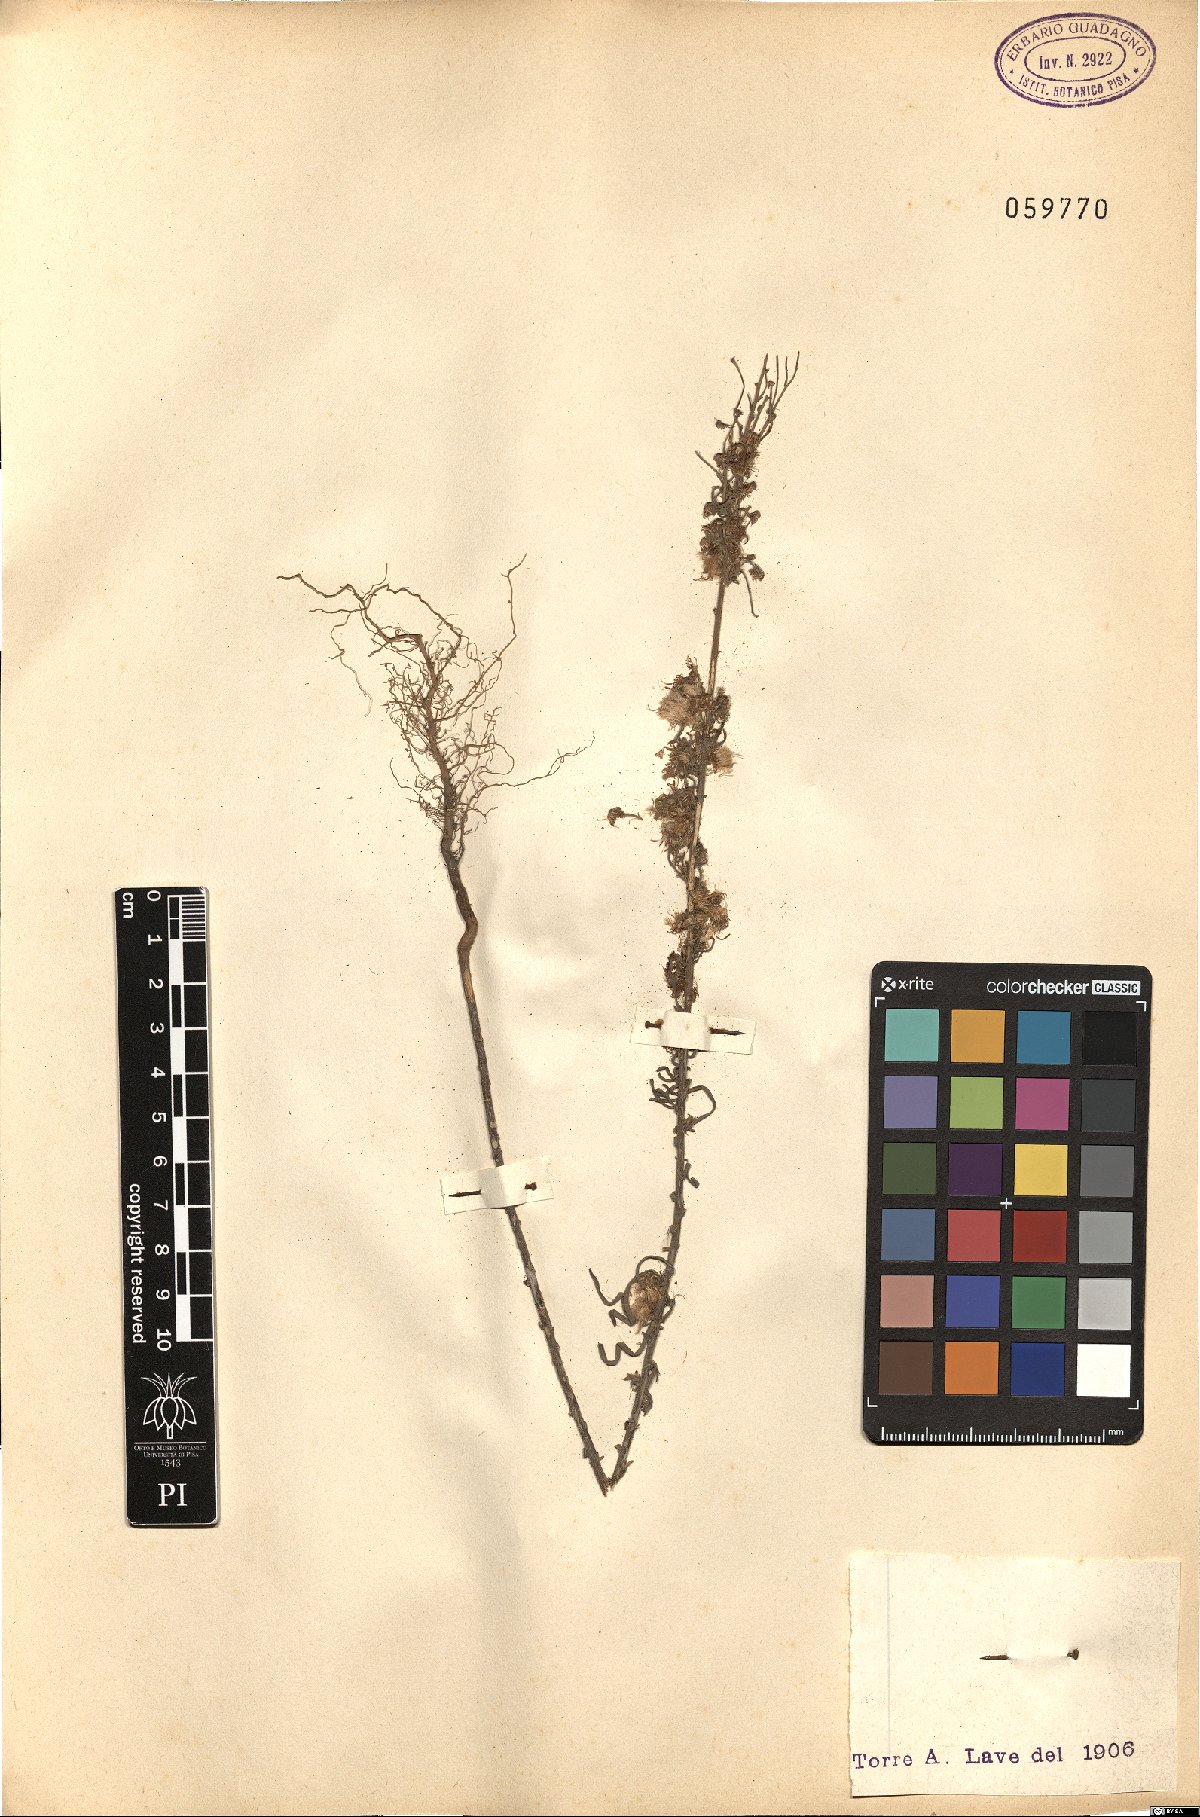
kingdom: Plantae
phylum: Tracheophyta
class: Magnoliopsida
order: Asterales
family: Asteraceae
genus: Erigeron
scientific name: Erigeron
